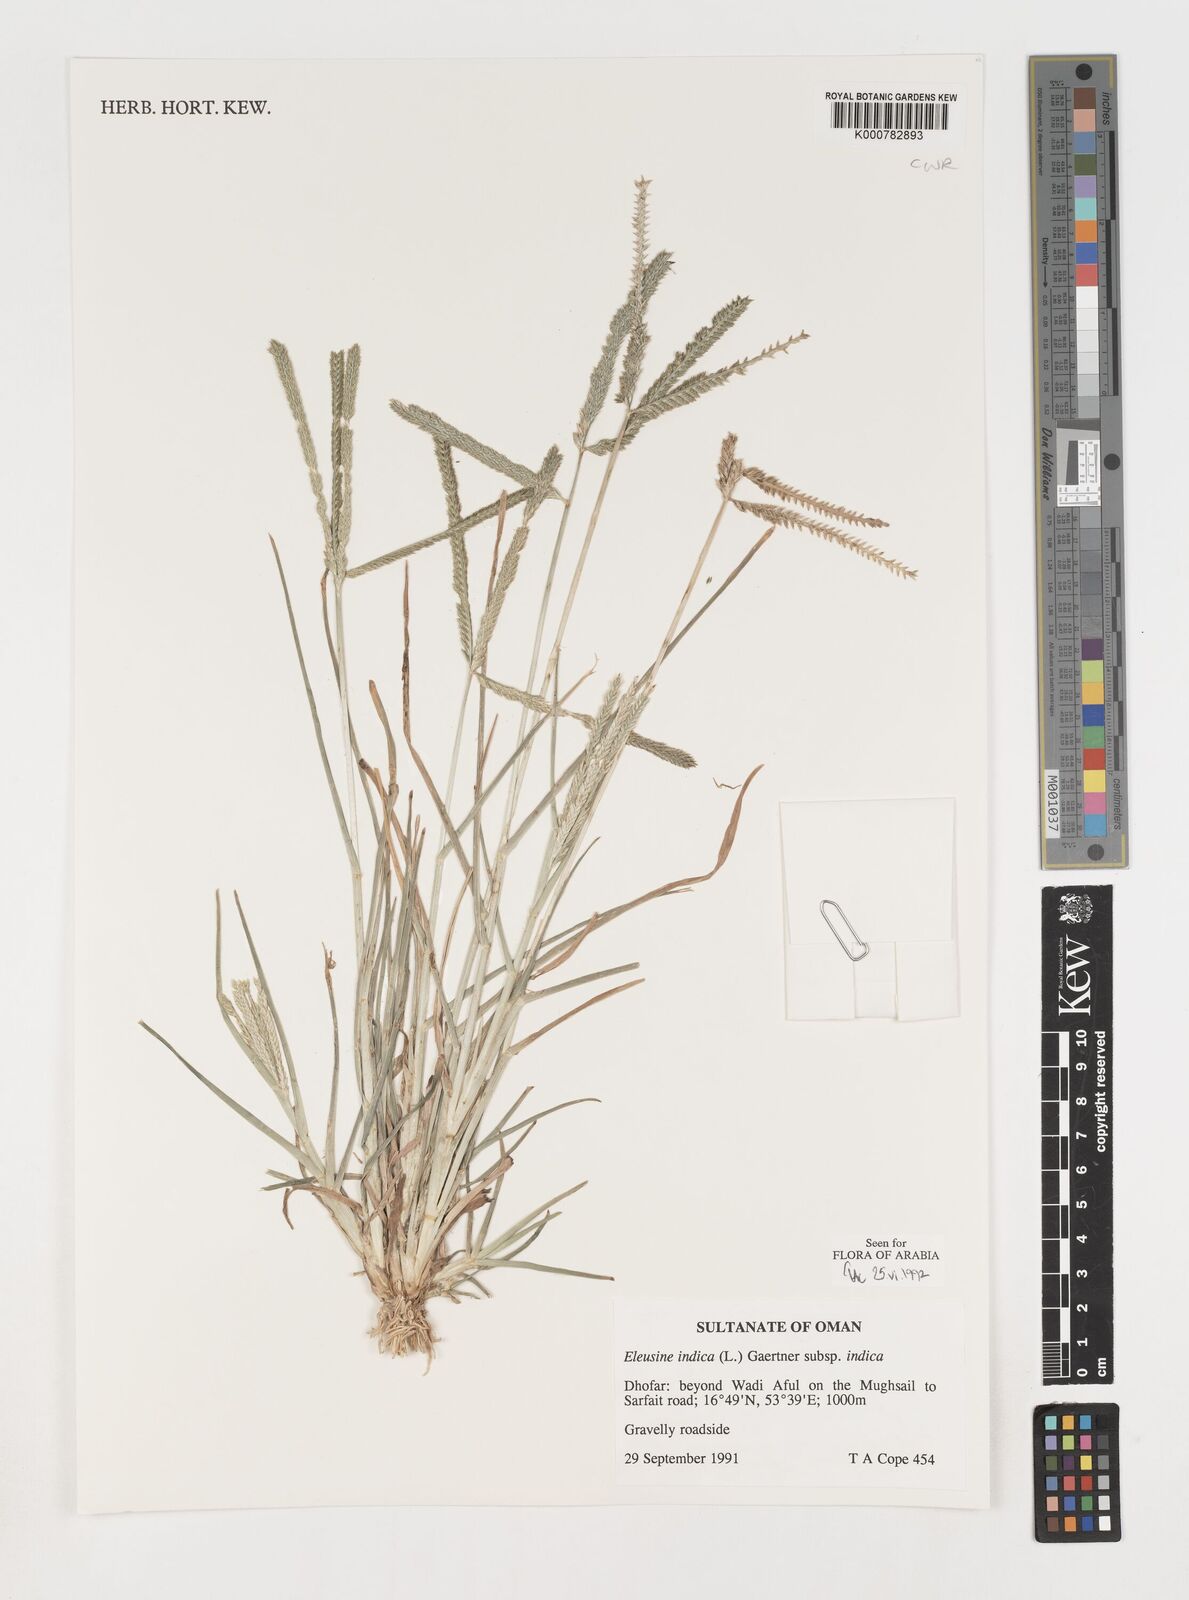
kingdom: Plantae
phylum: Tracheophyta
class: Liliopsida
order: Poales
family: Poaceae
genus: Eleusine
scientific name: Eleusine indica
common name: Yard-grass
